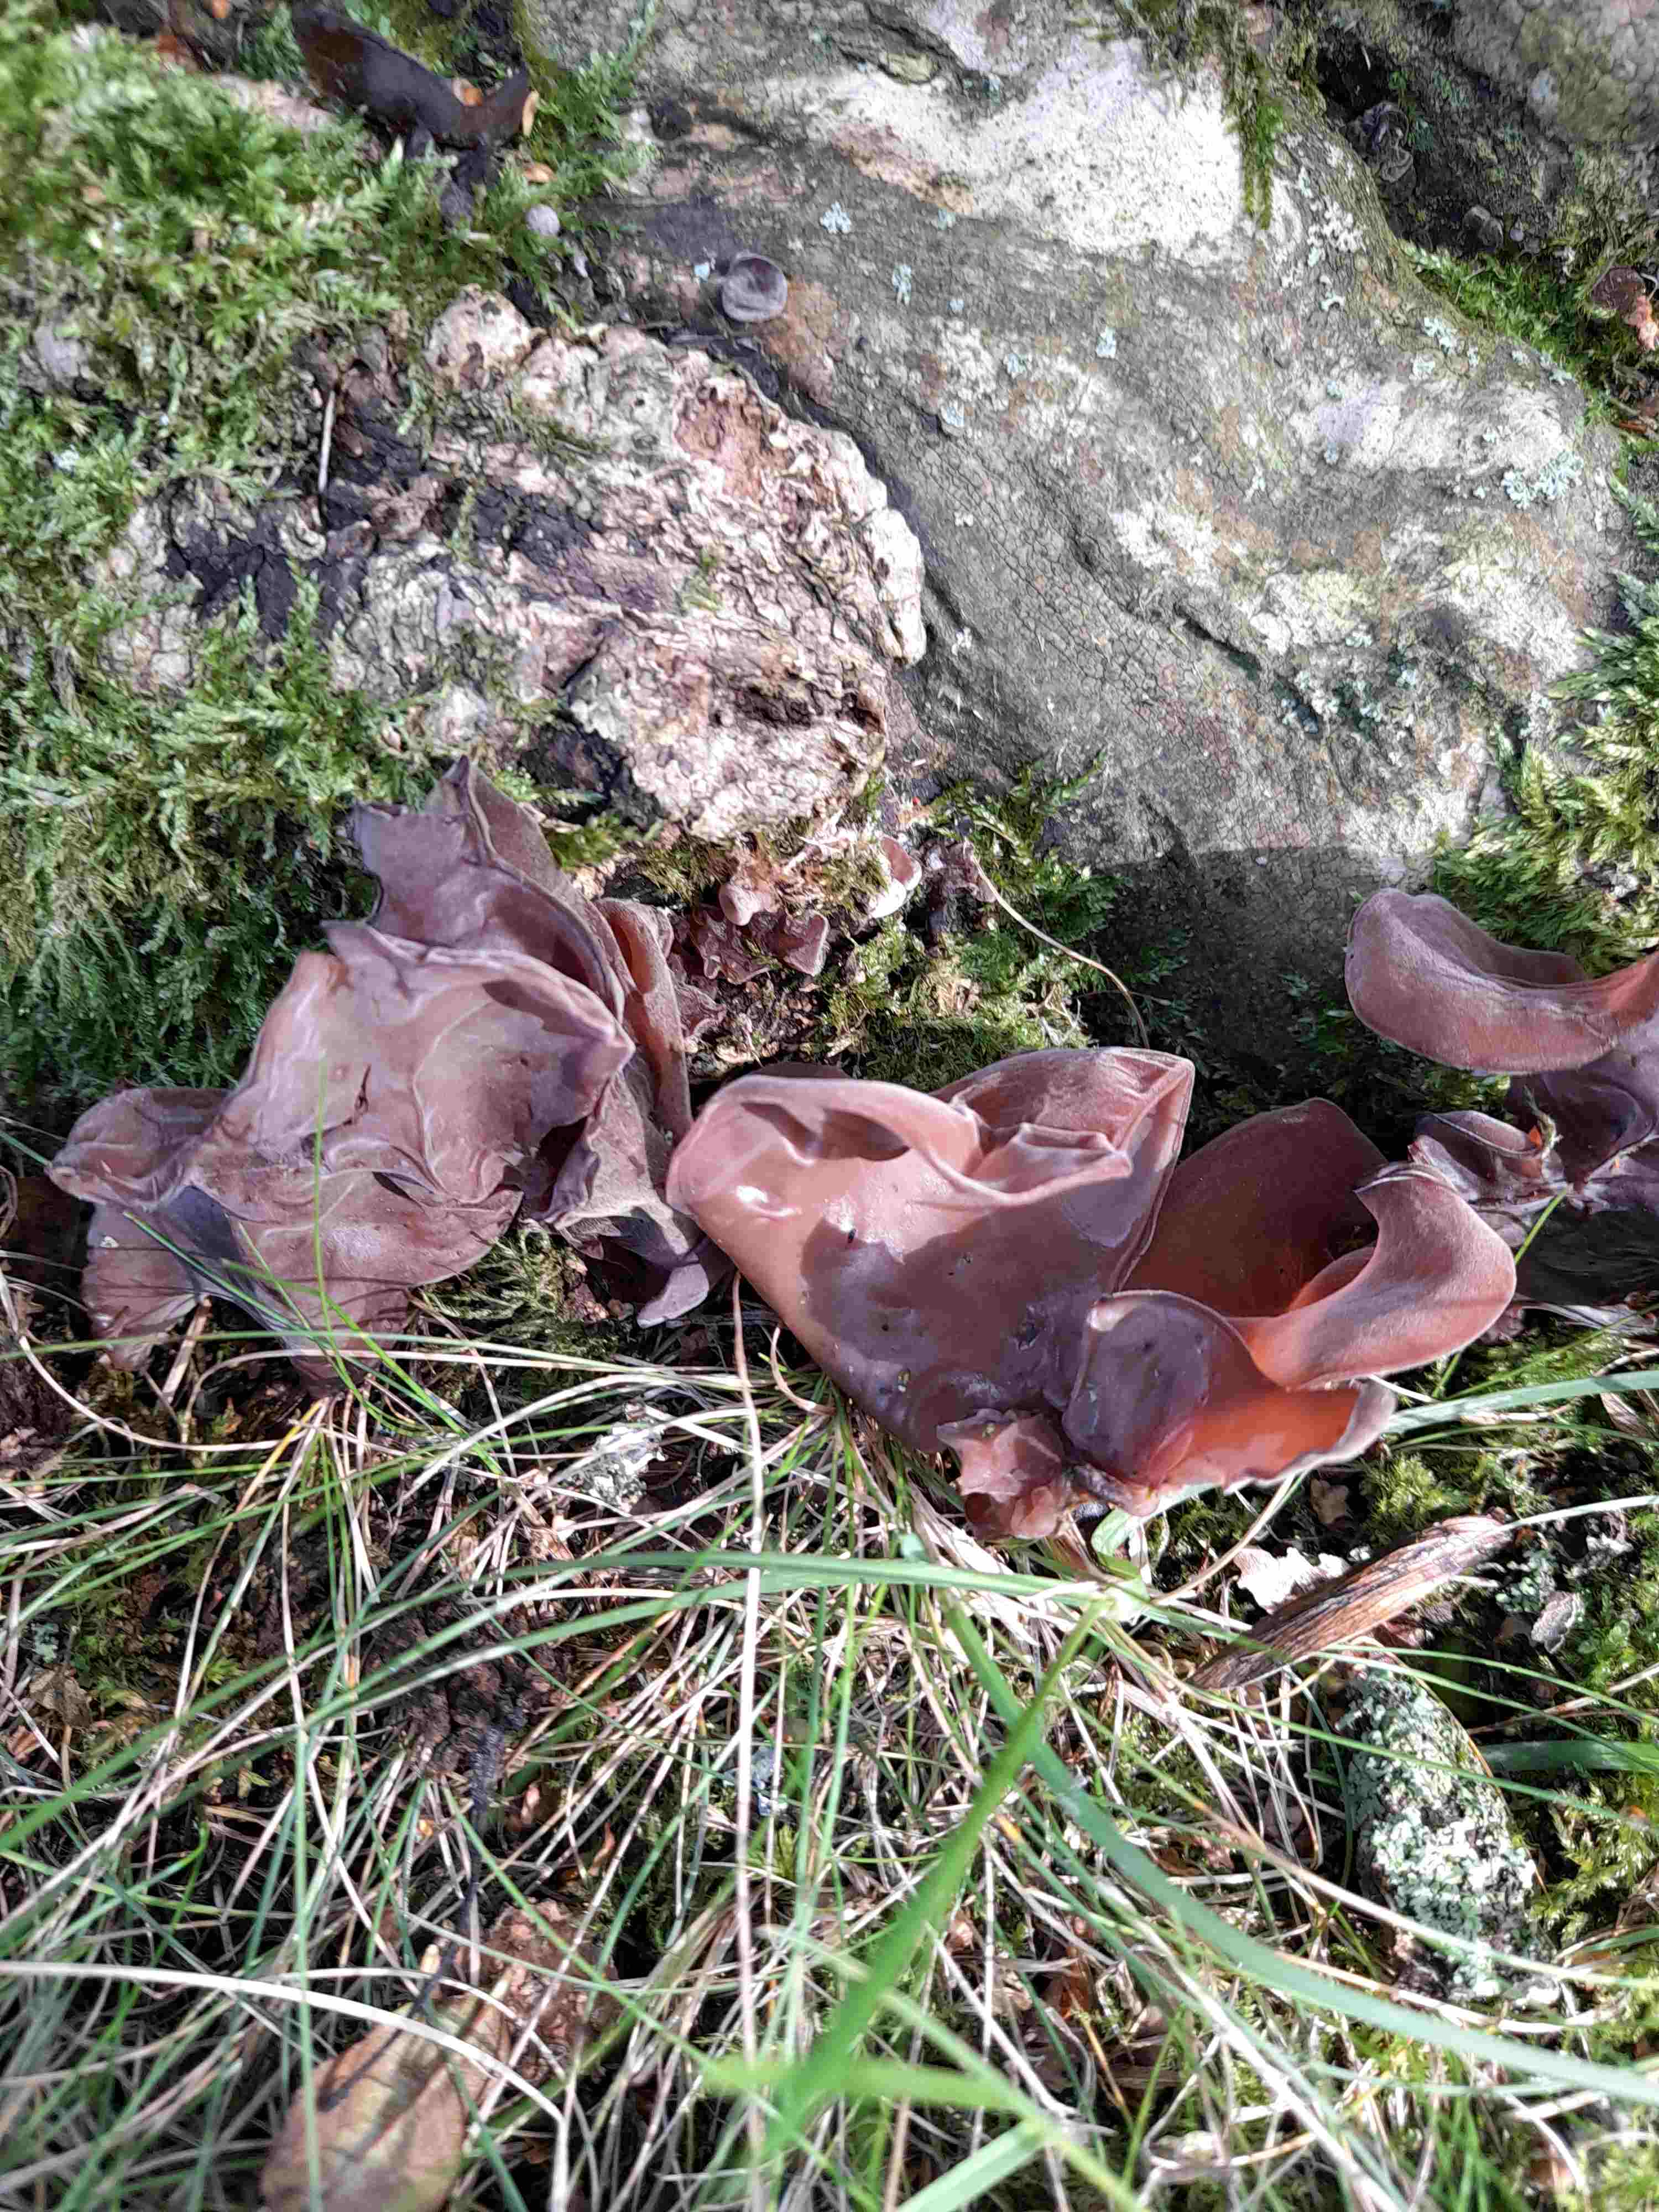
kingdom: Fungi
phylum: Basidiomycota
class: Agaricomycetes
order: Auriculariales
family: Auriculariaceae
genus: Auricularia
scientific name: Auricularia auricula-judae
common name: almindelig judasøre
